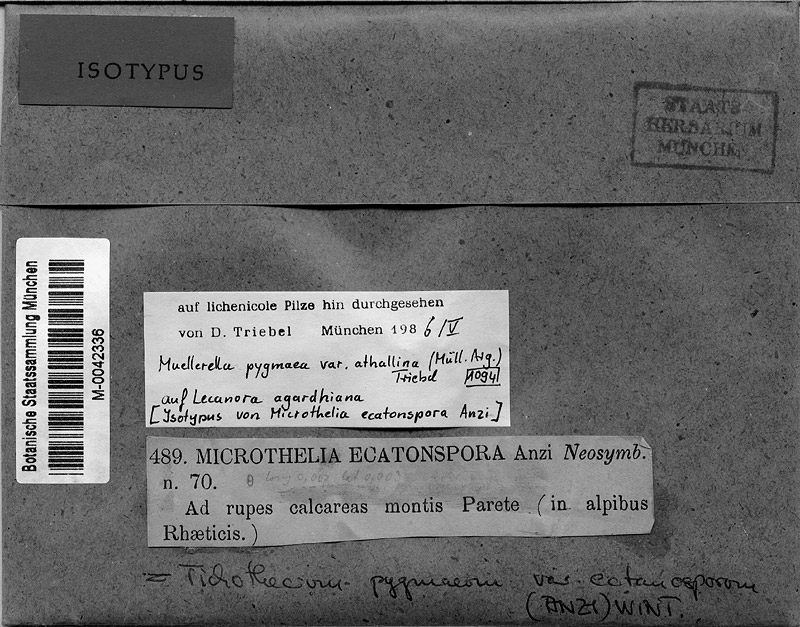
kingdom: Fungi
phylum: Ascomycota
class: Eurotiomycetes
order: Verrucariales
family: Verrucariaceae
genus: Muellerella
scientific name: Muellerella erratica
